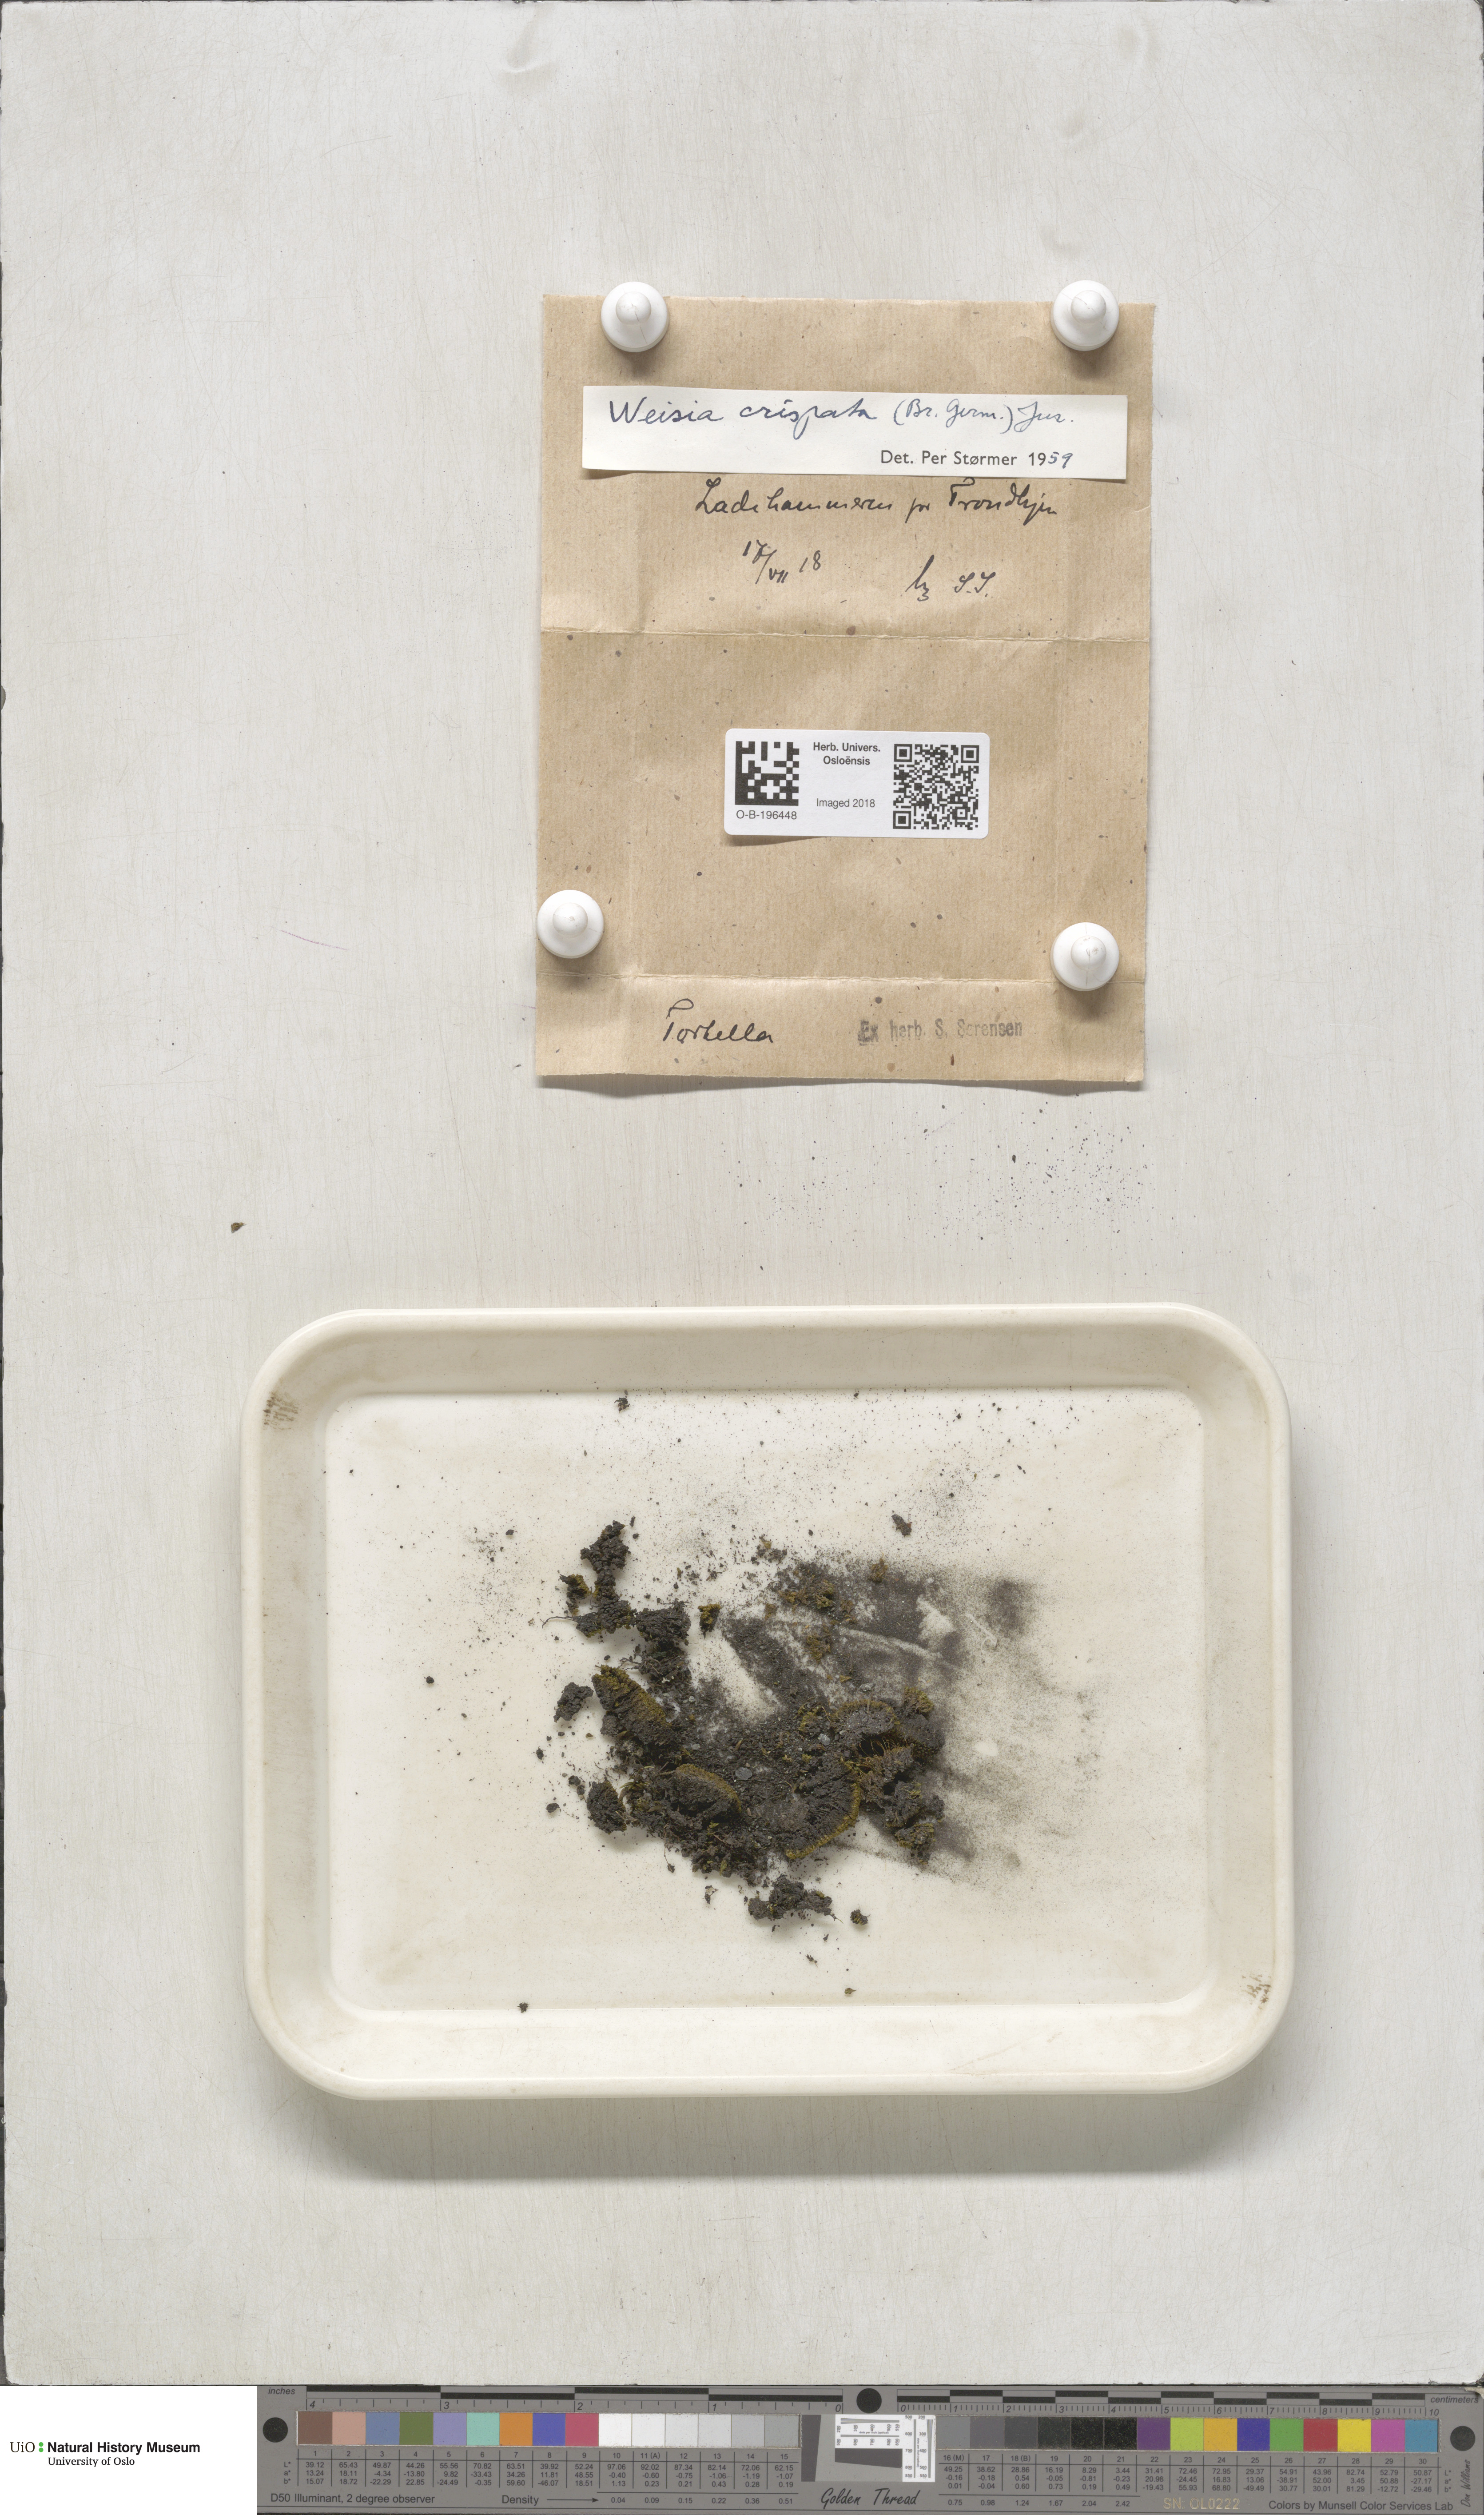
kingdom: Plantae
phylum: Bryophyta
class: Bryopsida
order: Pottiales
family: Pottiaceae
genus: Weissia
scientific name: Weissia controversa
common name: Green-tufted stubble moss
